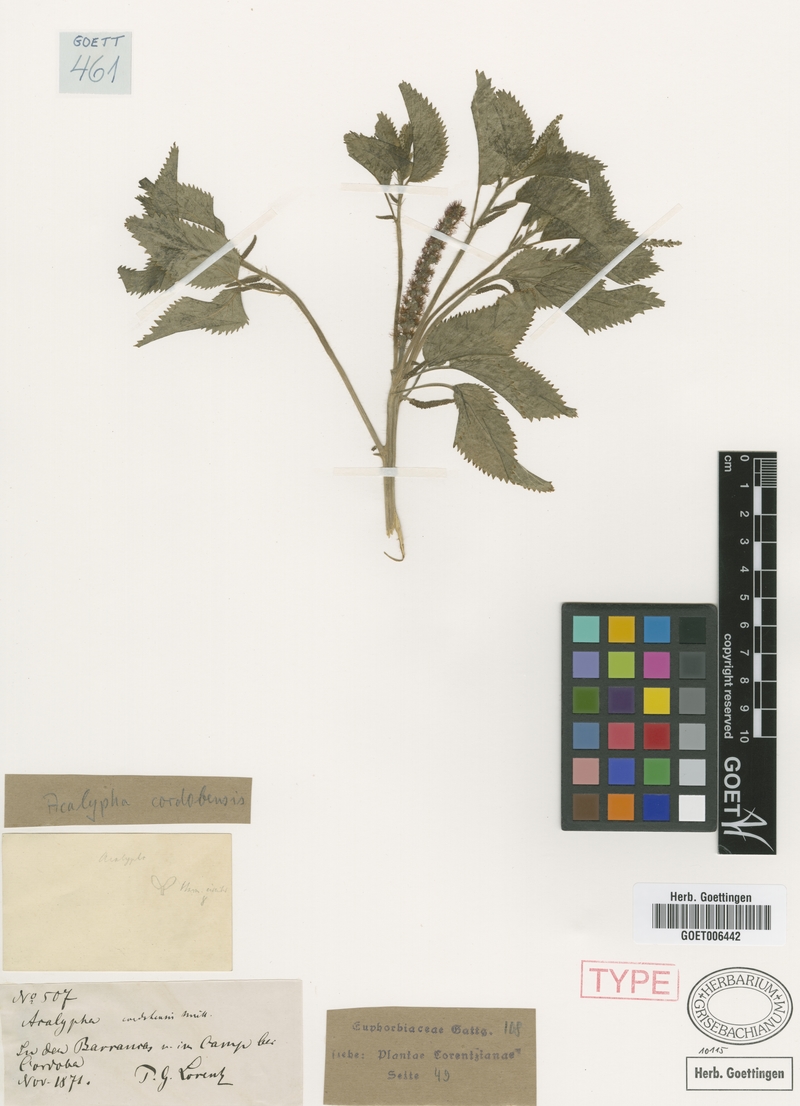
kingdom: Plantae
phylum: Tracheophyta
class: Magnoliopsida
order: Malpighiales
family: Euphorbiaceae
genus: Acalypha
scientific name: Acalypha cordobensis
